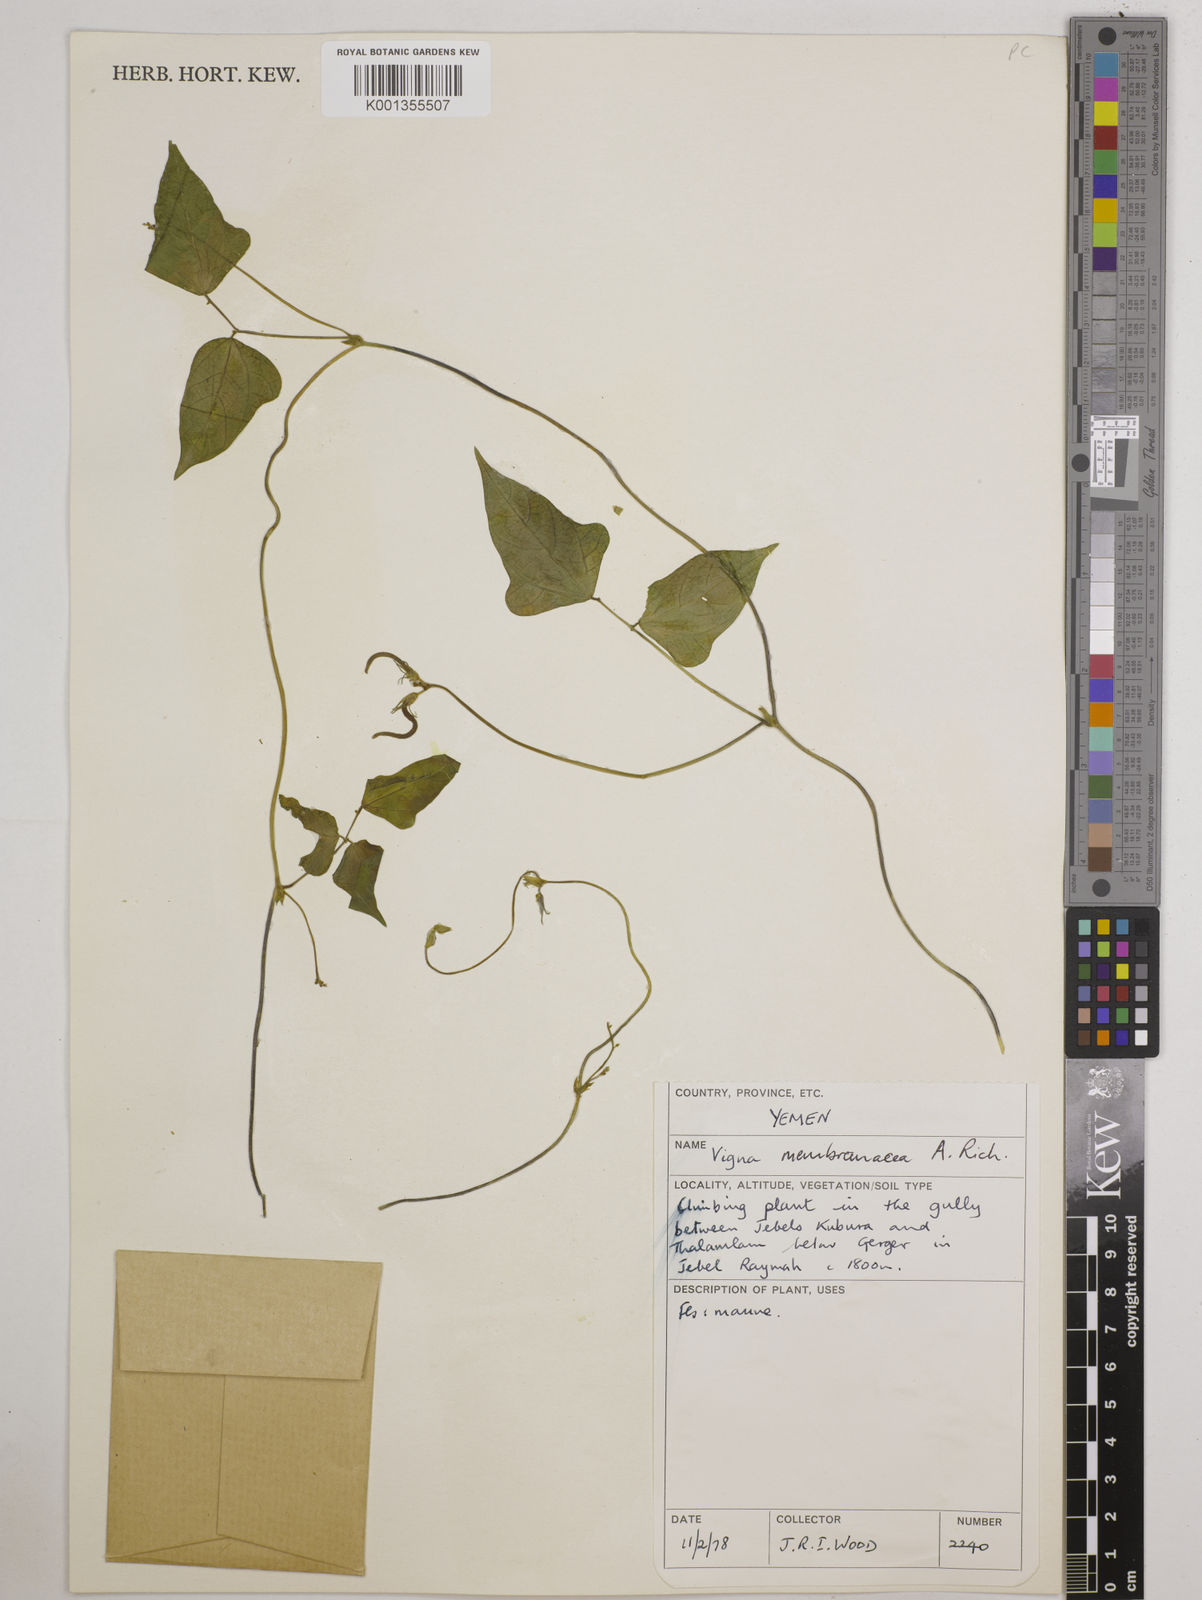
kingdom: Plantae
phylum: Tracheophyta
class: Magnoliopsida
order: Fabales
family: Fabaceae
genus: Vigna
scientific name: Vigna membranacea
